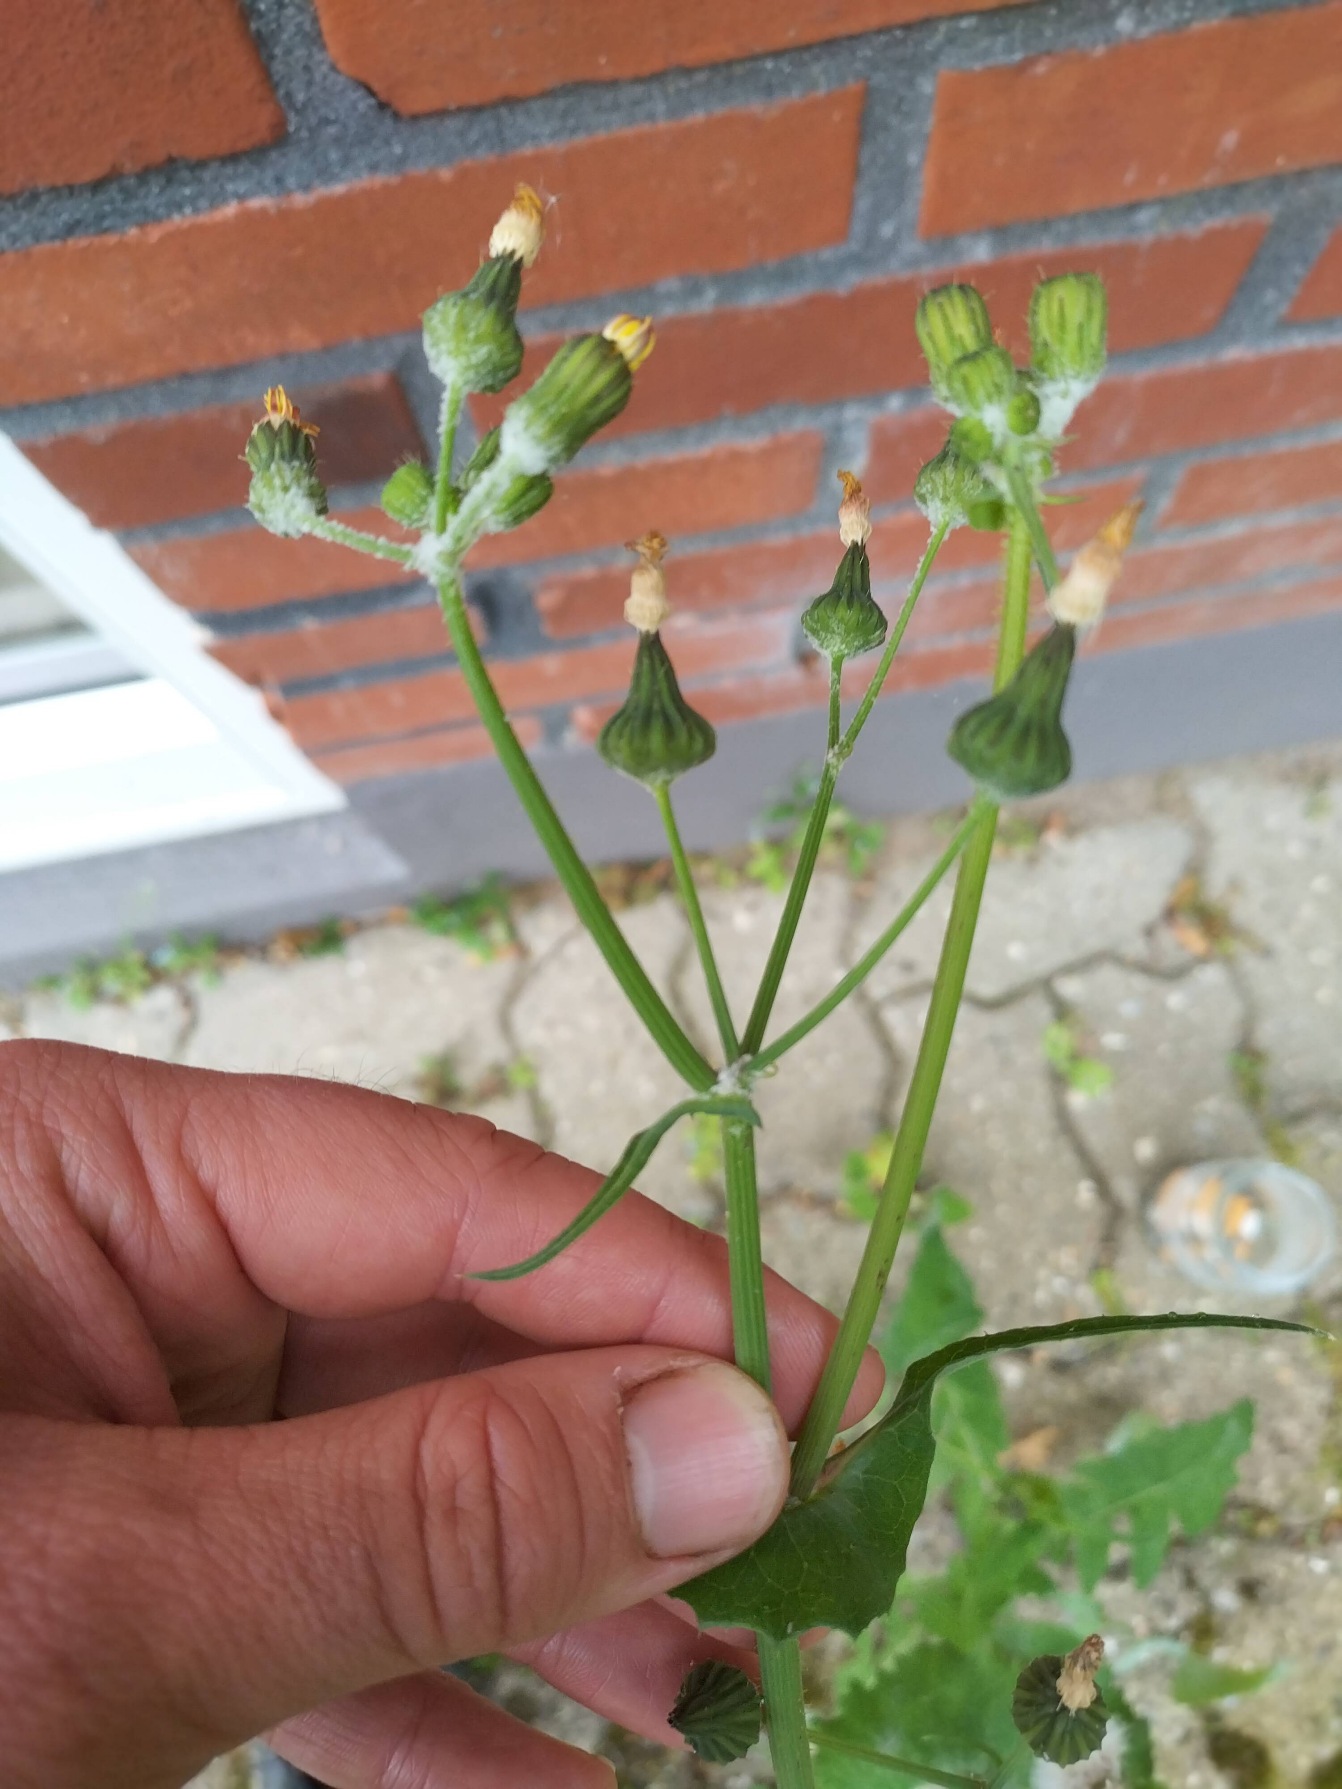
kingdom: Plantae
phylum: Tracheophyta
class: Magnoliopsida
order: Asterales
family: Asteraceae
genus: Sonchus
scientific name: Sonchus oleraceus
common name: Almindelig svinemælk
